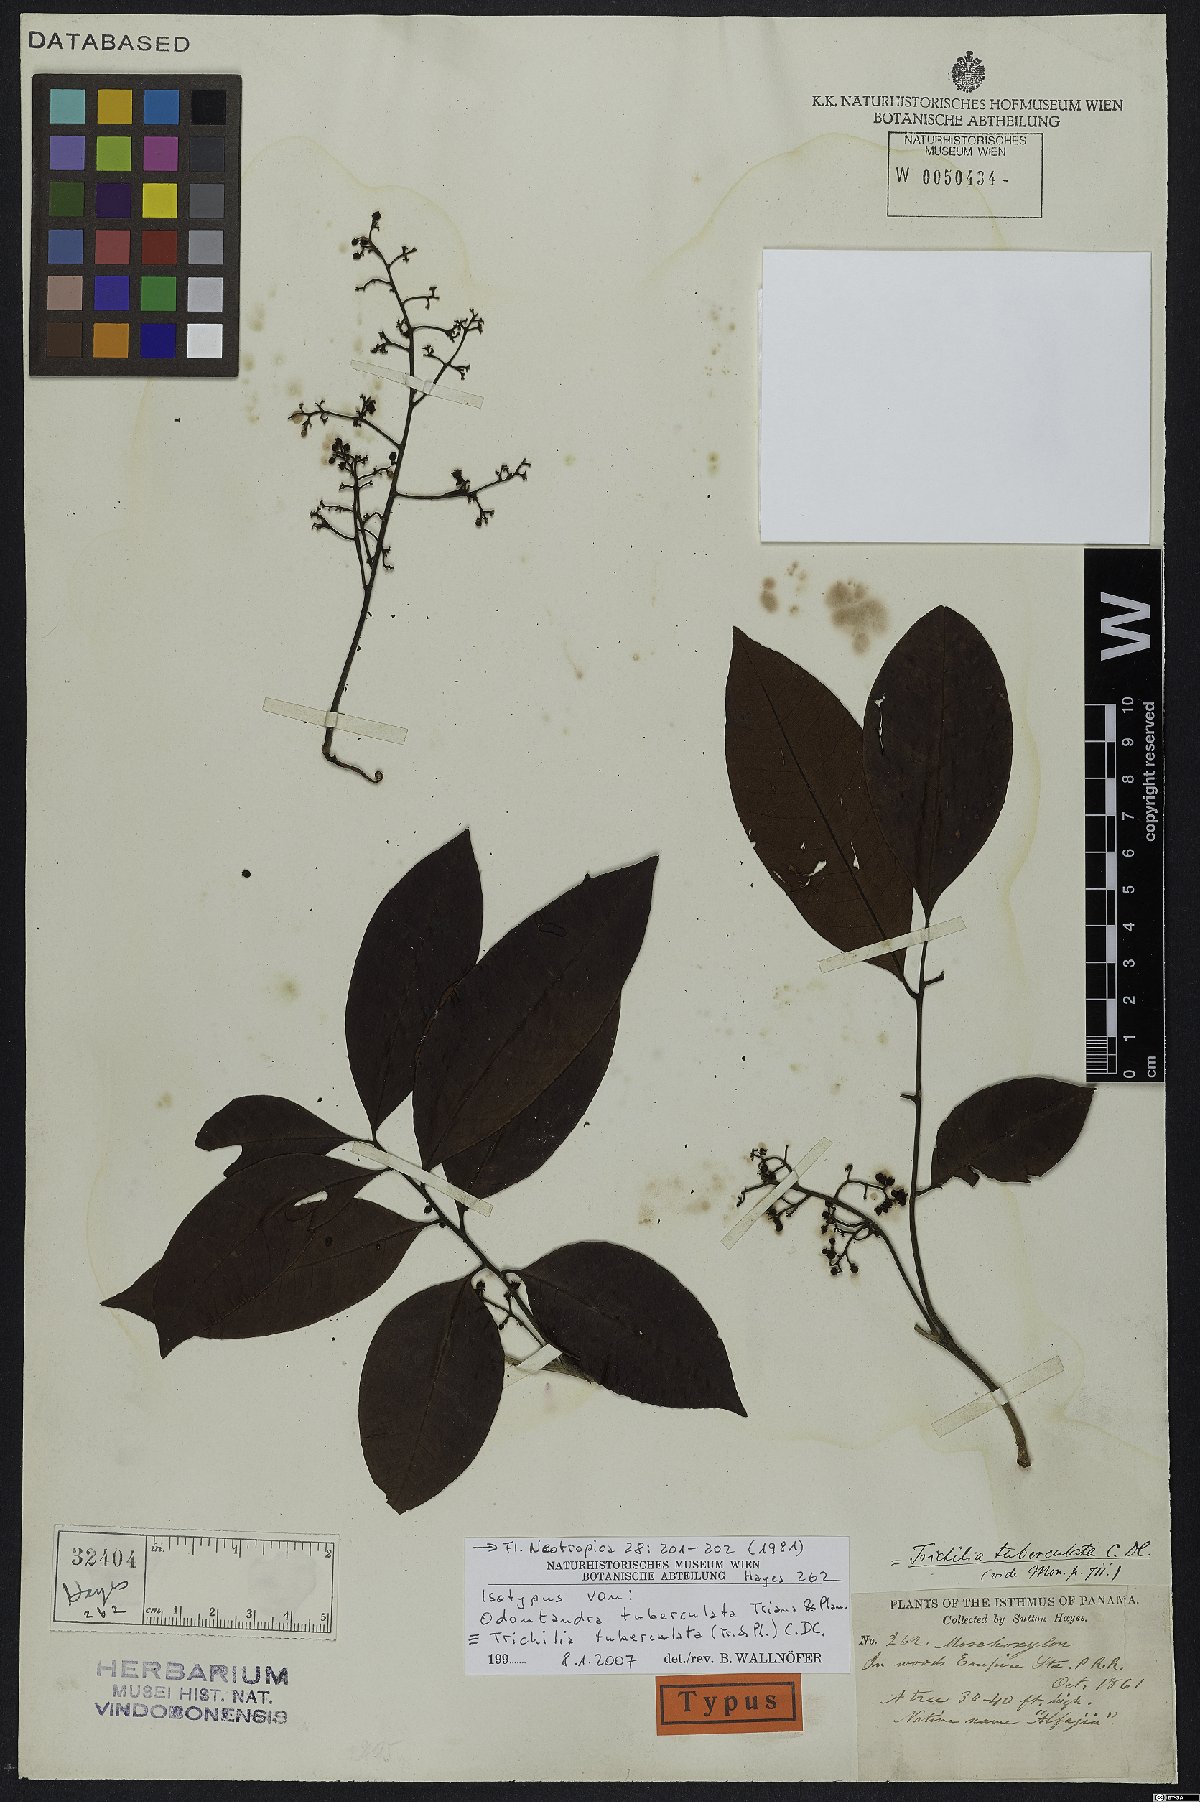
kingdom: Plantae
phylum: Tracheophyta
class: Magnoliopsida
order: Sapindales
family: Meliaceae
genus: Trichilia
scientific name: Trichilia tuberculata
